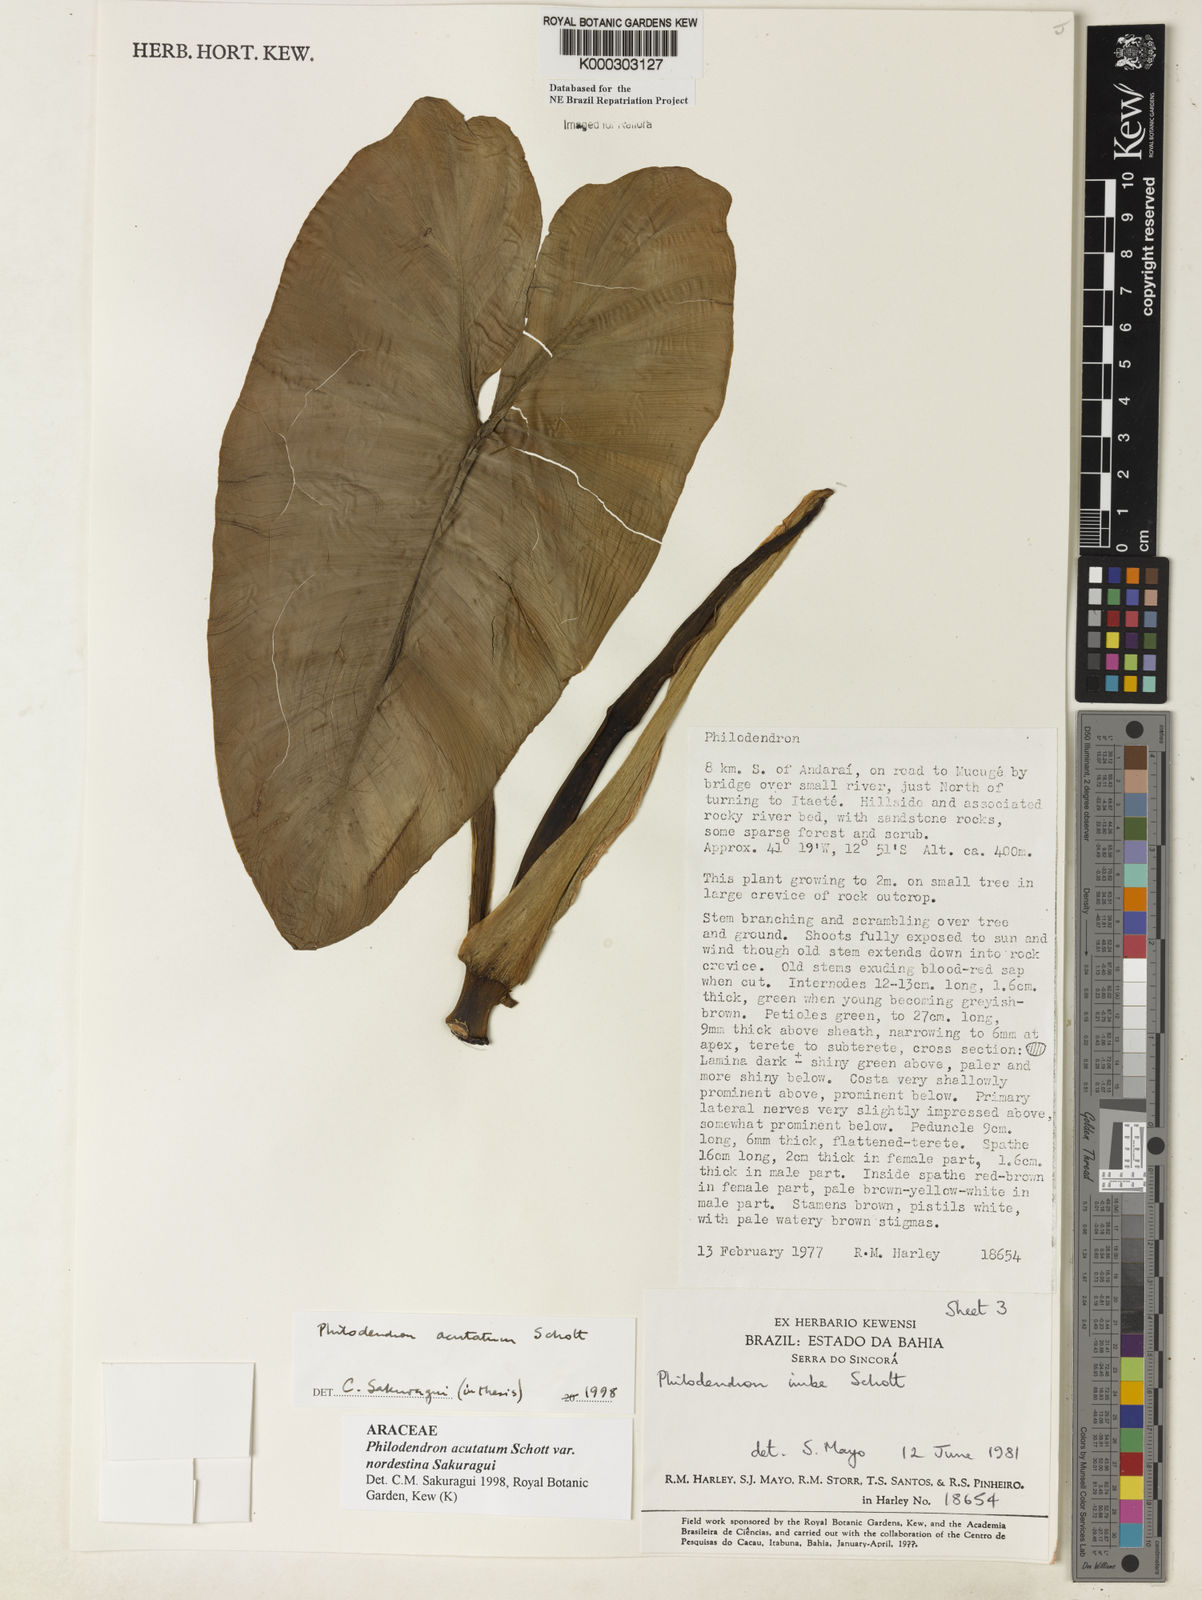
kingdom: Plantae
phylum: Tracheophyta
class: Liliopsida
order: Alismatales
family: Araceae
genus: Philodendron
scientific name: Philodendron quinquenervium
